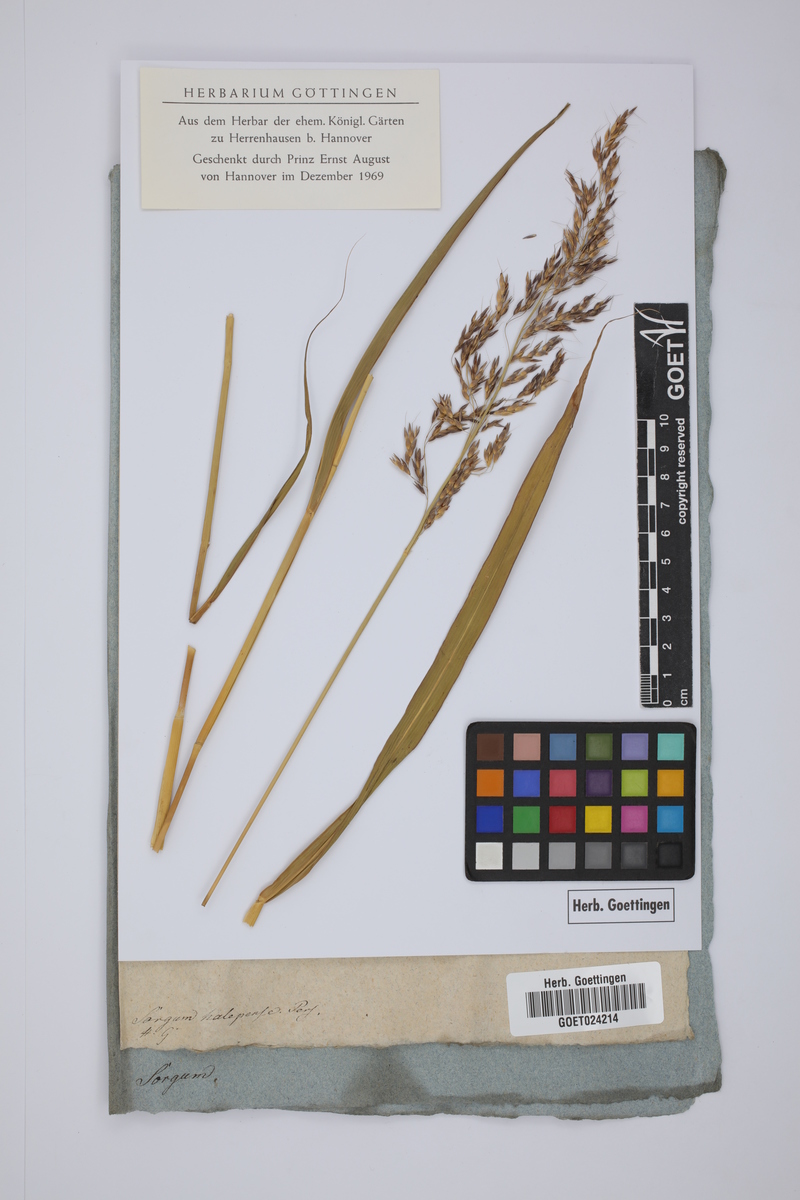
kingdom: Plantae
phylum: Tracheophyta
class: Liliopsida
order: Poales
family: Poaceae
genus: Sorghum
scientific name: Sorghum halepense
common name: Johnson-grass
